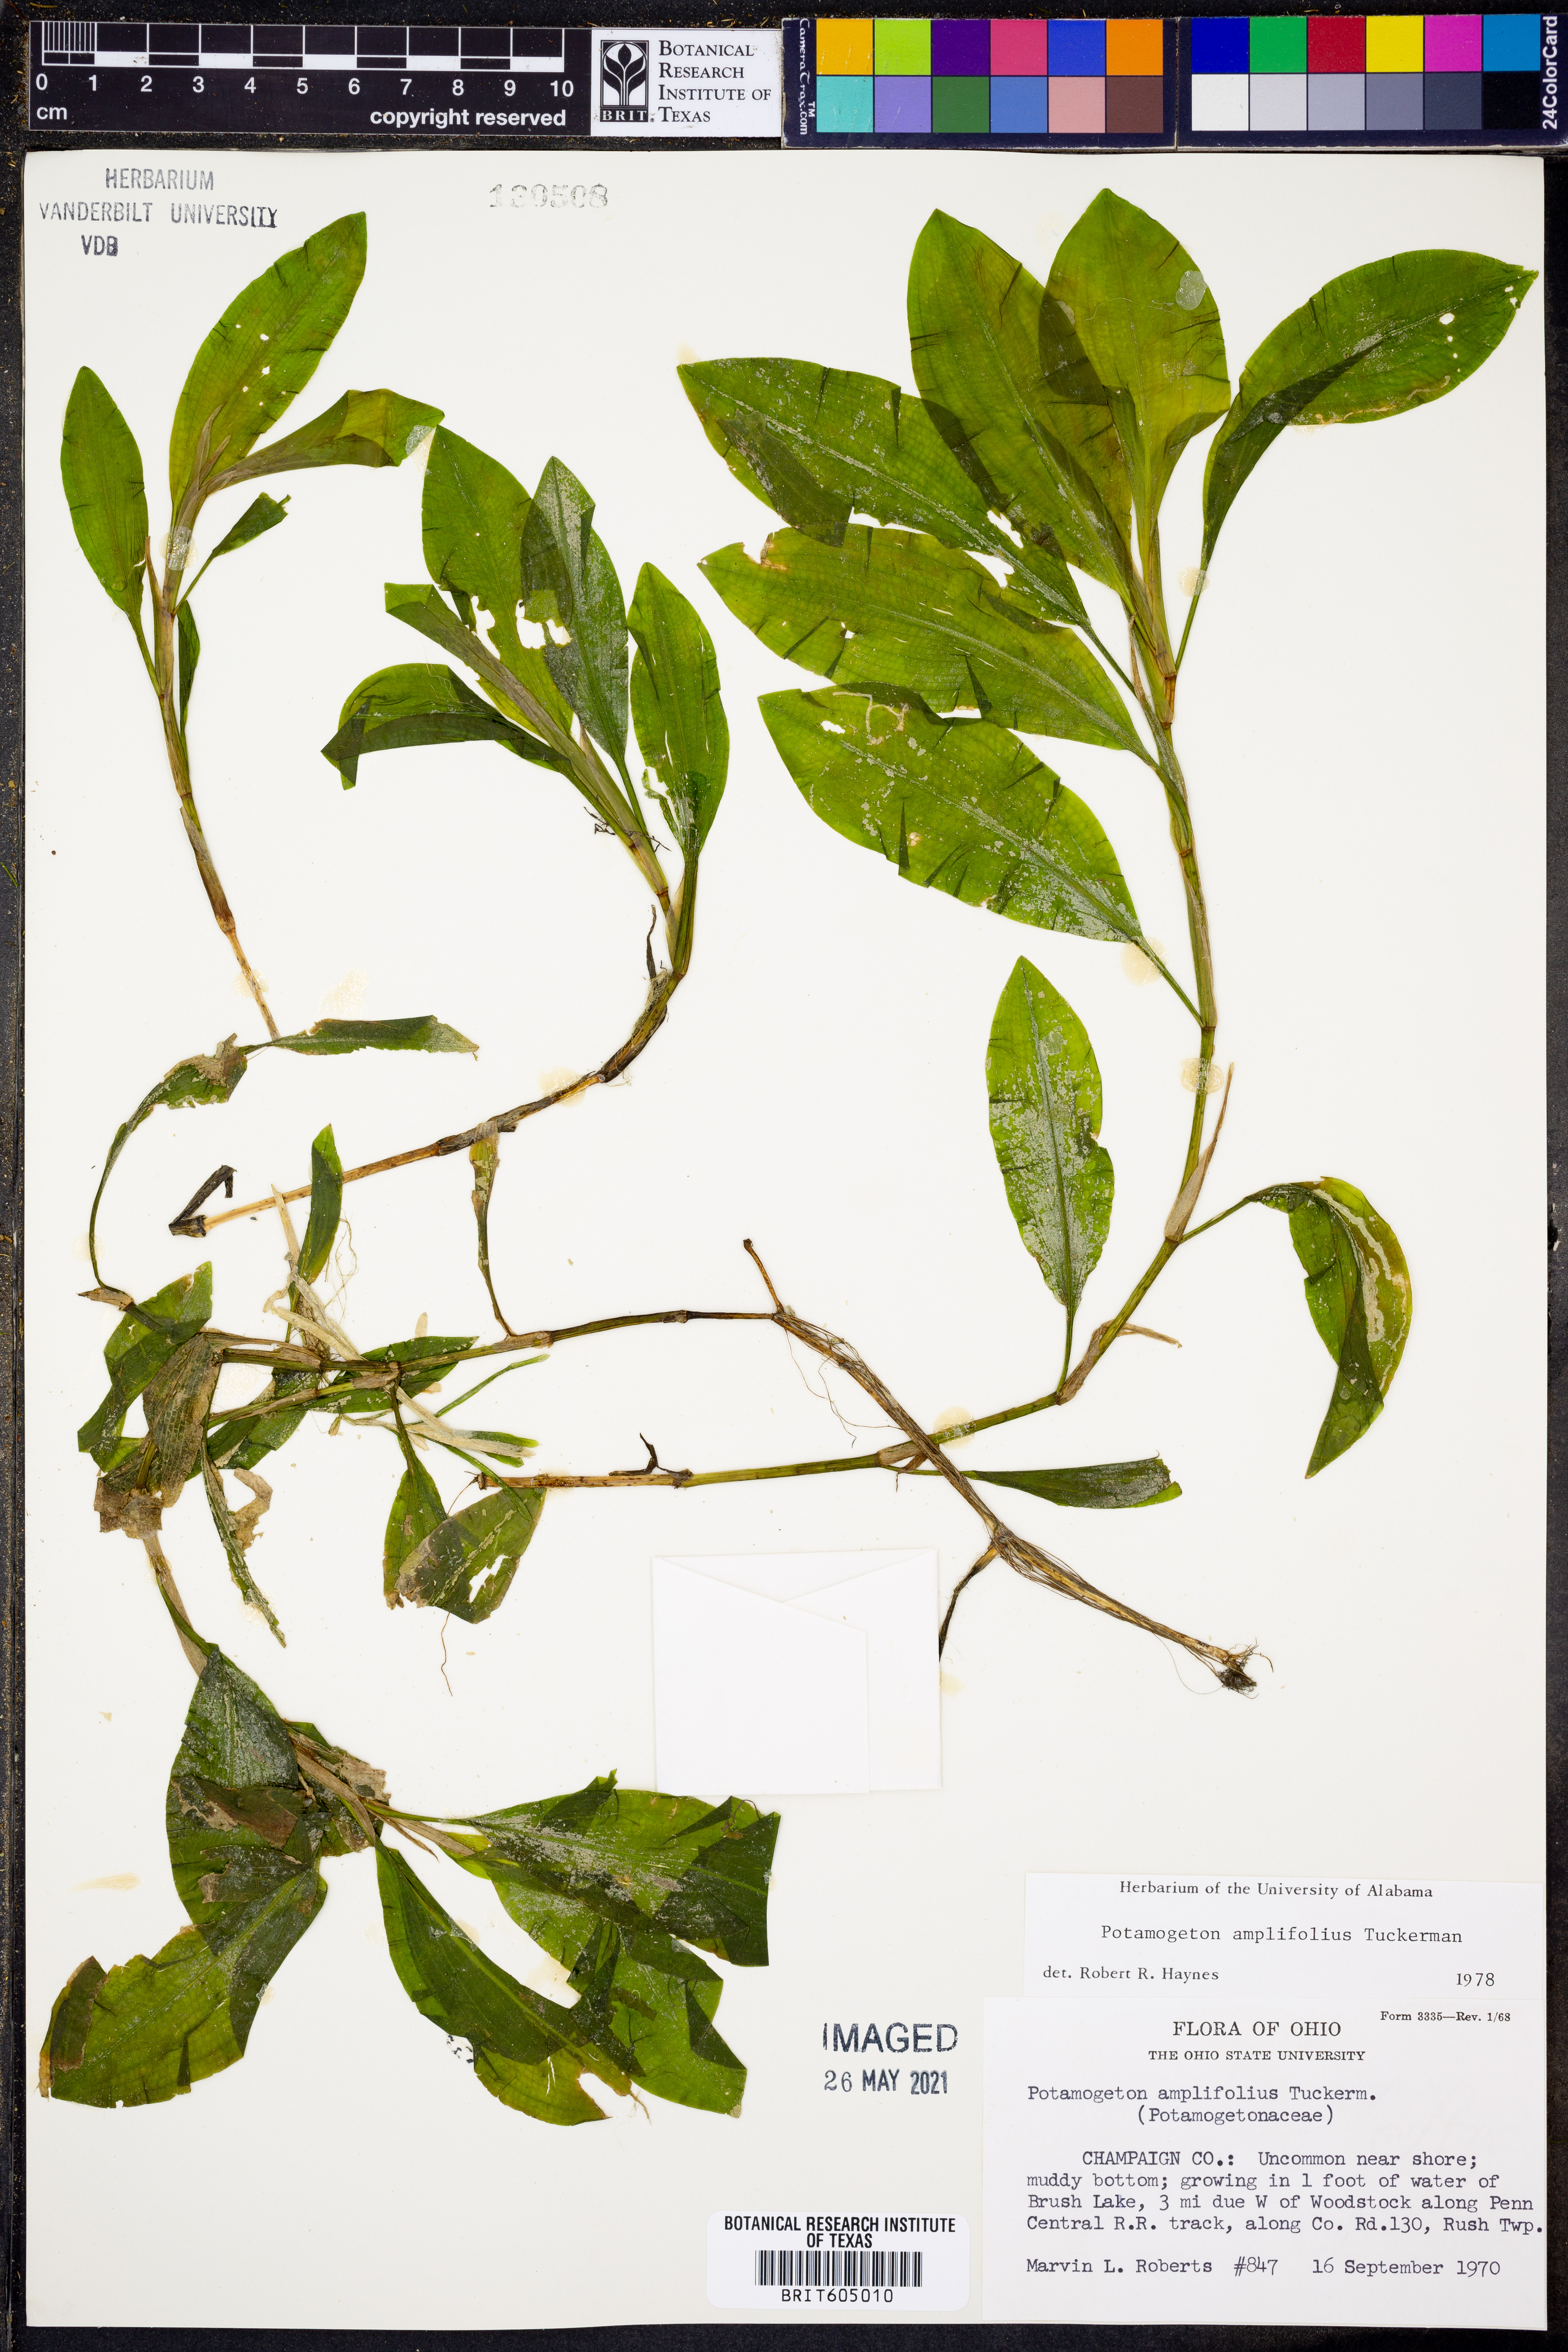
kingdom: Plantae
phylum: Tracheophyta
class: Liliopsida
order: Alismatales
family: Potamogetonaceae
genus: Potamogeton
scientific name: Potamogeton amplifolius
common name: Broad-leaved pondweed
